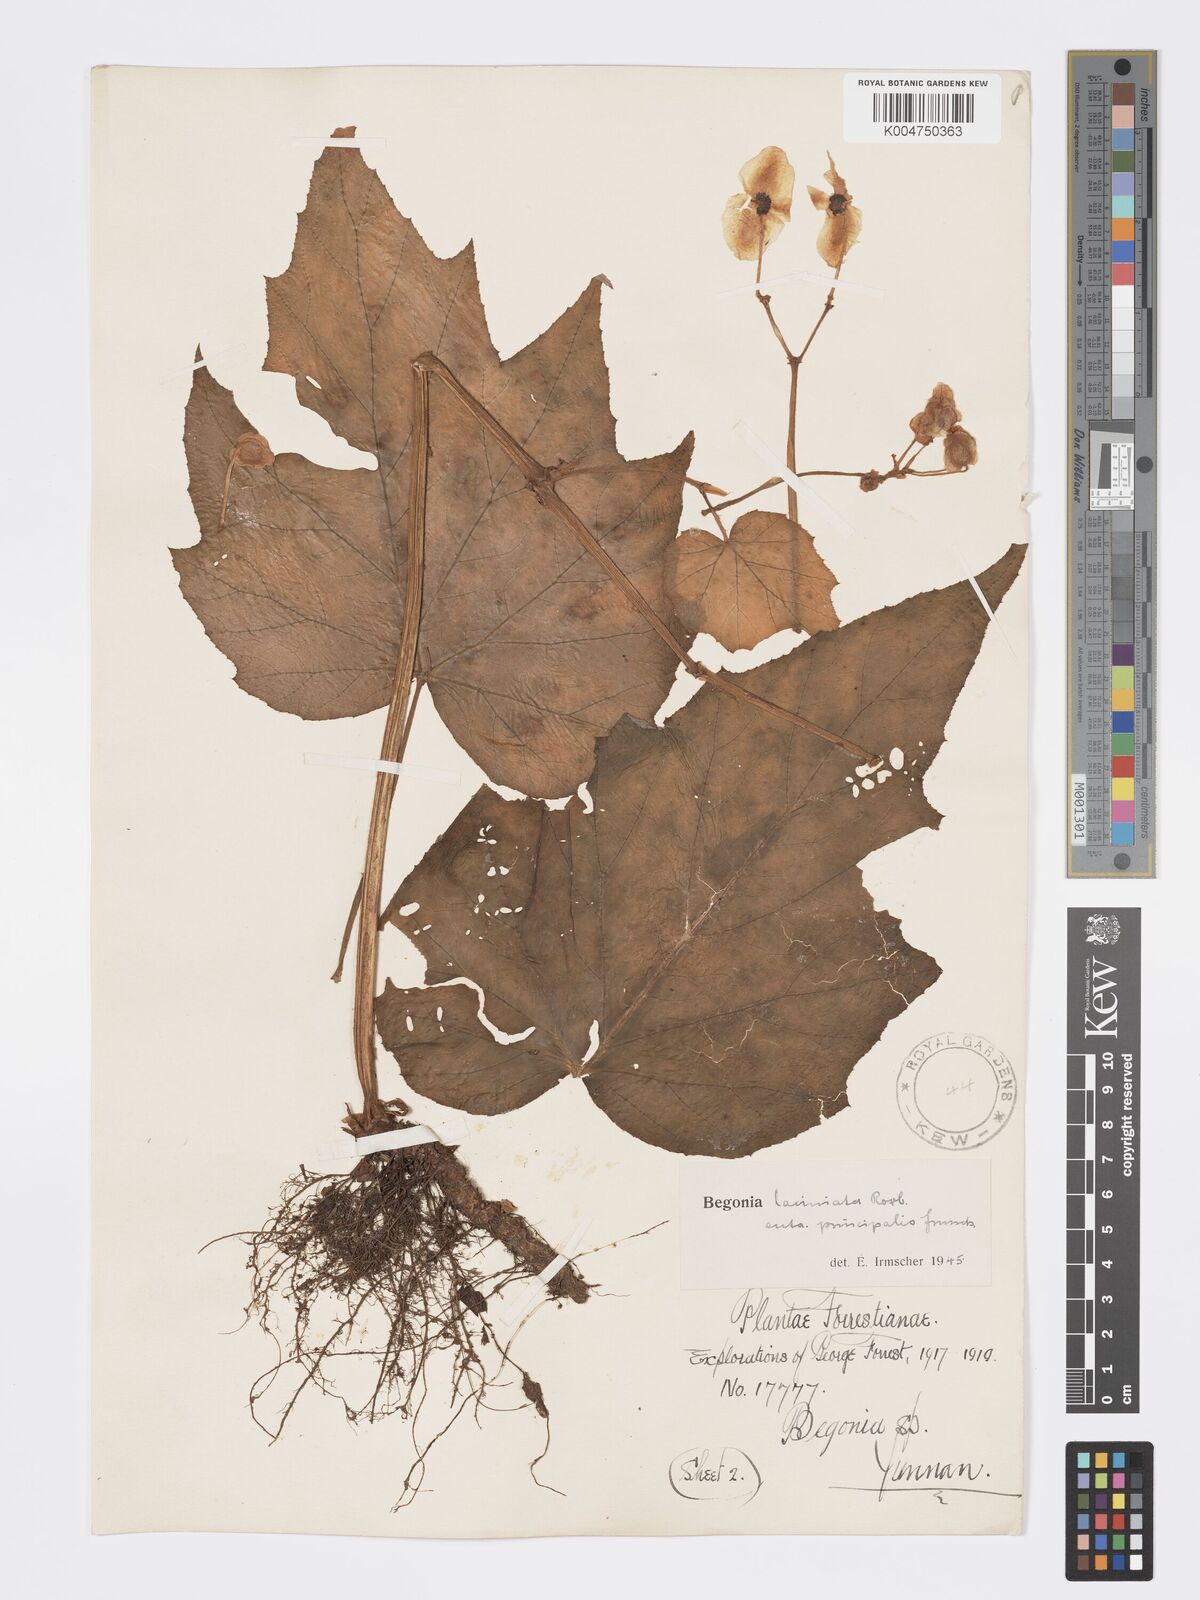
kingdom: Plantae
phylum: Tracheophyta
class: Magnoliopsida
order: Cucurbitales
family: Begoniaceae
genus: Begonia
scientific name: Begonia palmata
